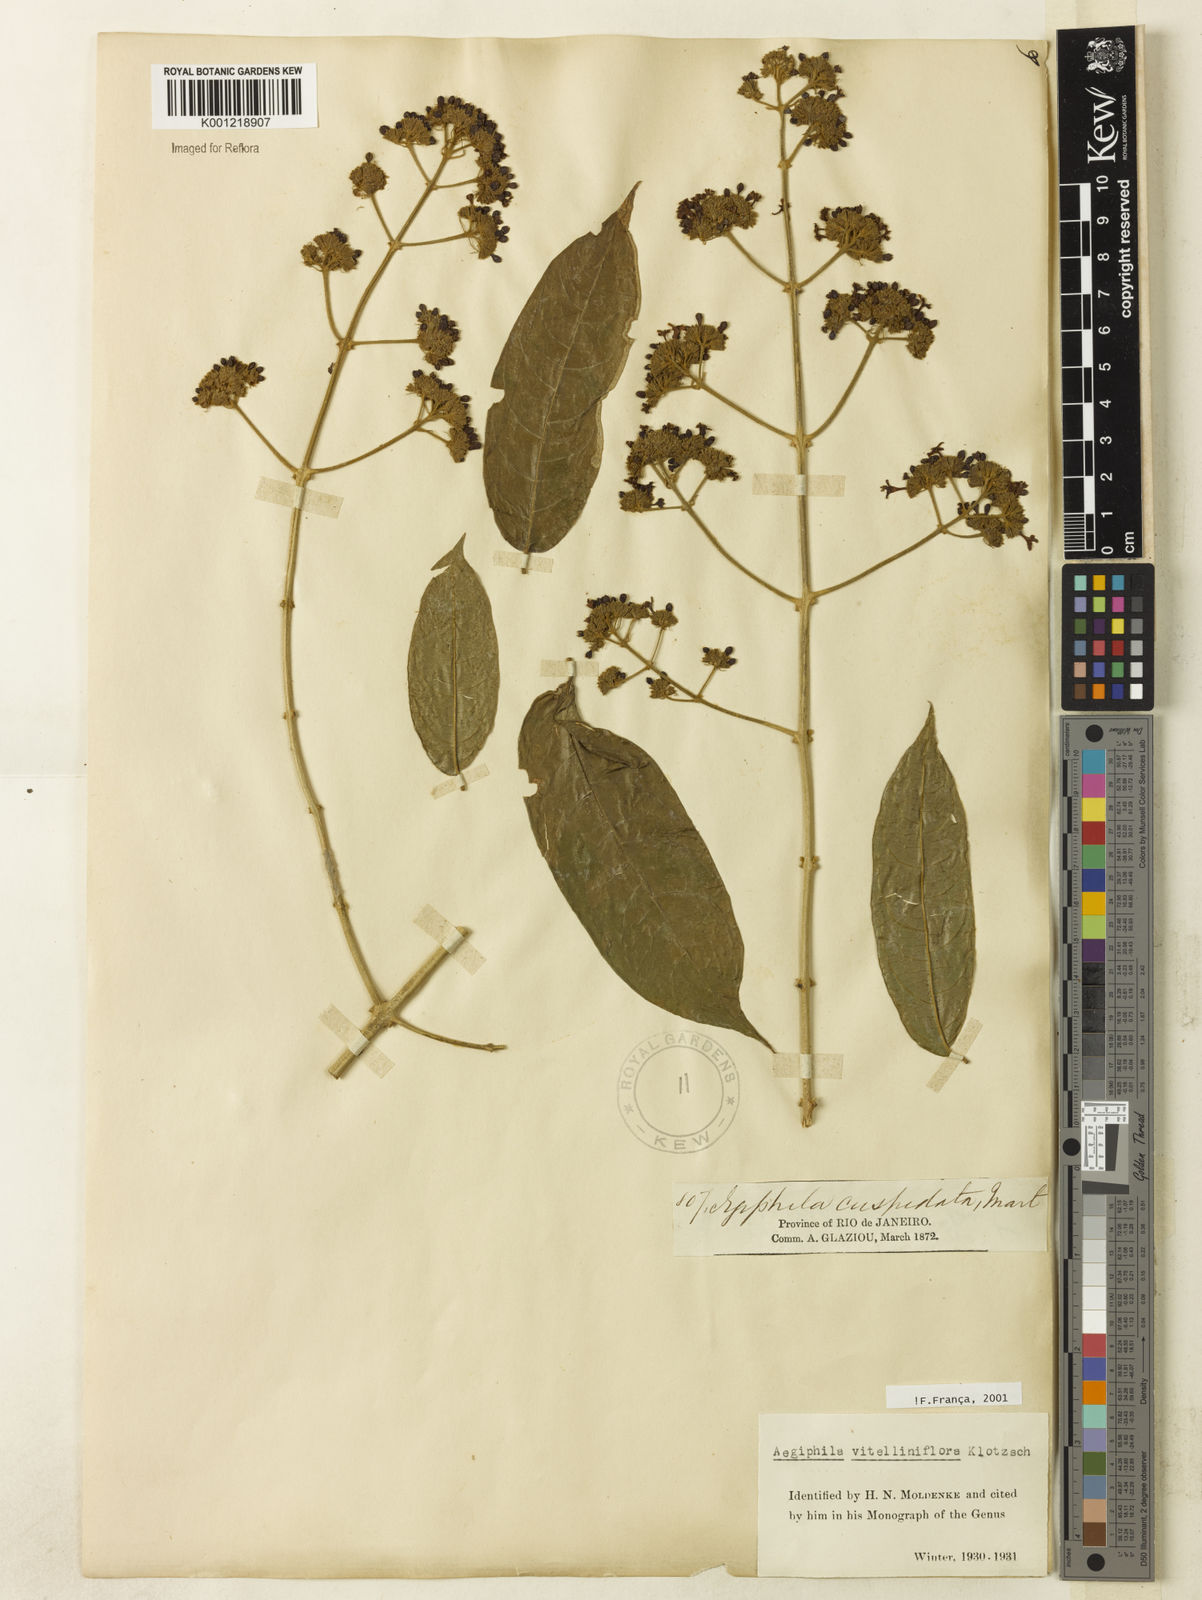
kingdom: Plantae
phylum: Tracheophyta
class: Magnoliopsida
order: Lamiales
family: Lamiaceae
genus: Aegiphila
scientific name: Aegiphila
